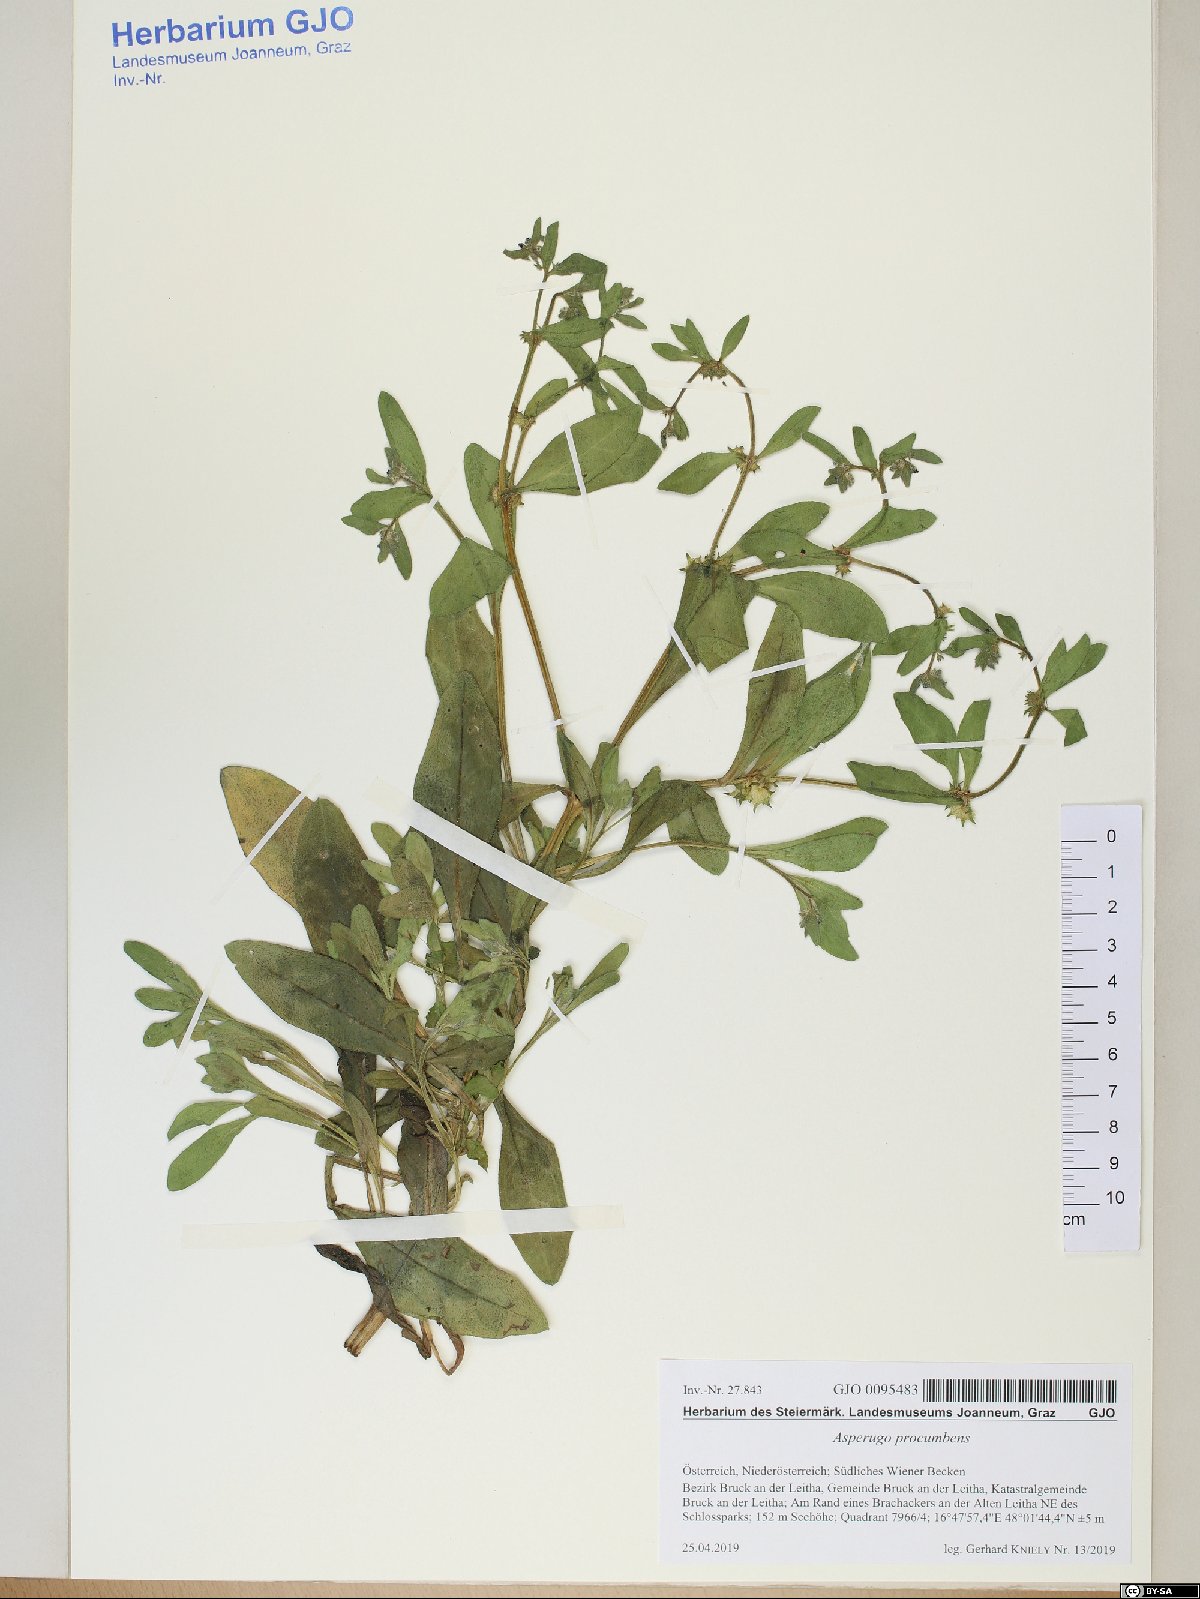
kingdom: Plantae
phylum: Tracheophyta
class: Magnoliopsida
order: Boraginales
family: Boraginaceae
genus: Asperugo
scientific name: Asperugo procumbens
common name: Madwort
